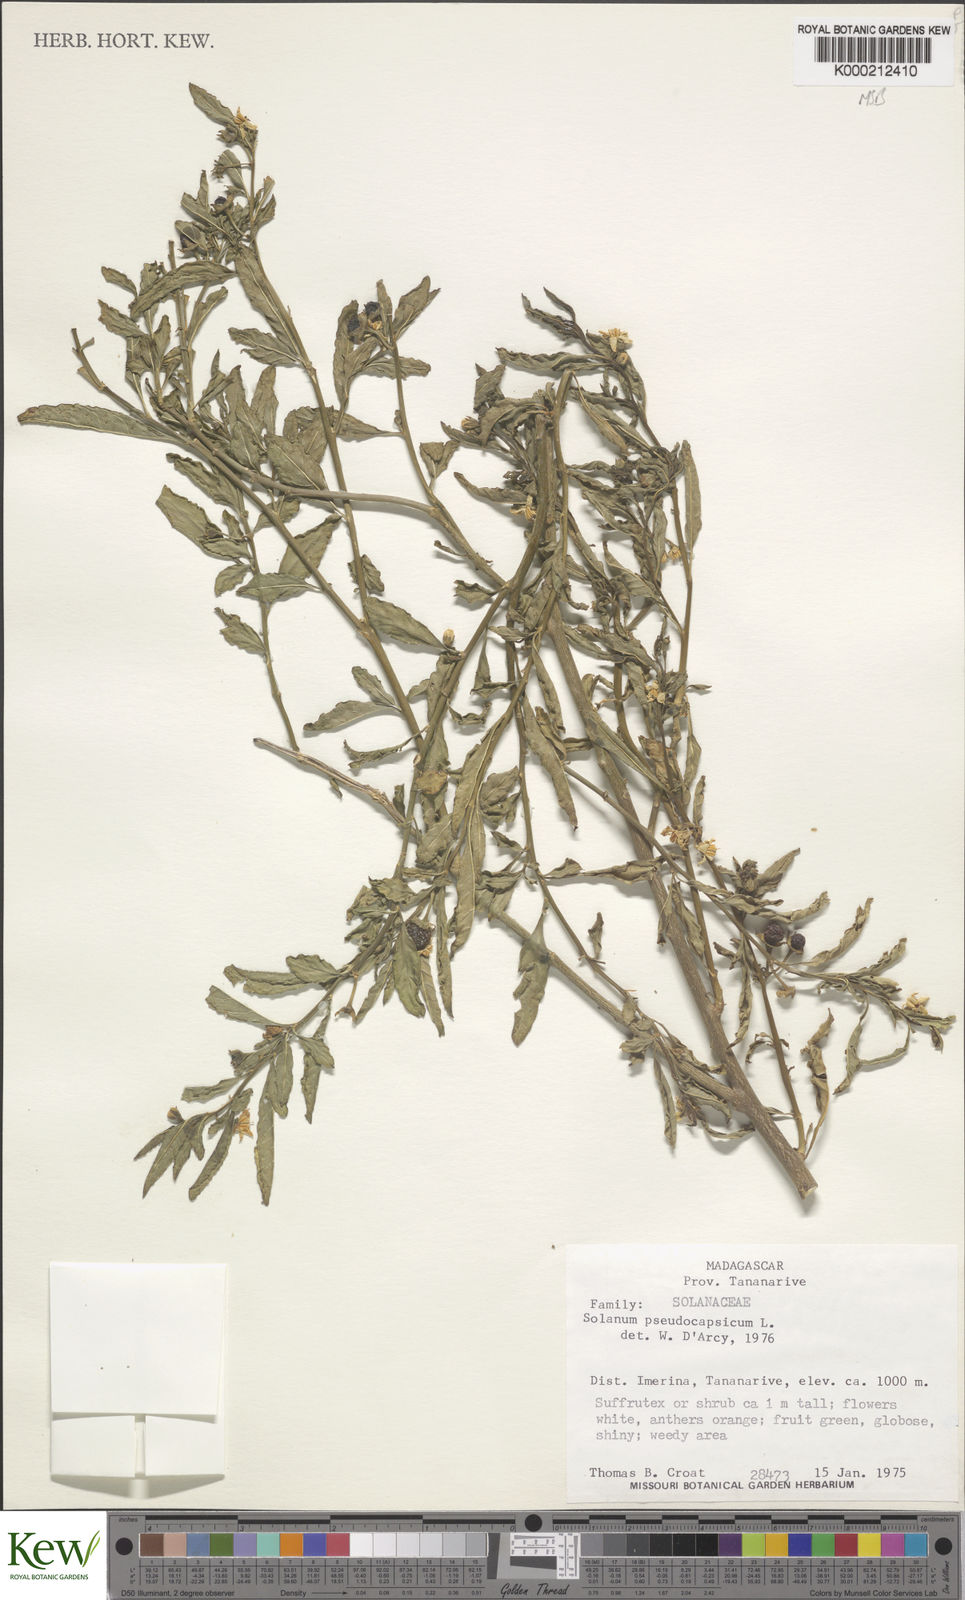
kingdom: Plantae
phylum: Tracheophyta
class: Magnoliopsida
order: Solanales
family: Solanaceae
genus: Solanum
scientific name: Solanum pseudocapsicum
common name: Jerusalem cherry
